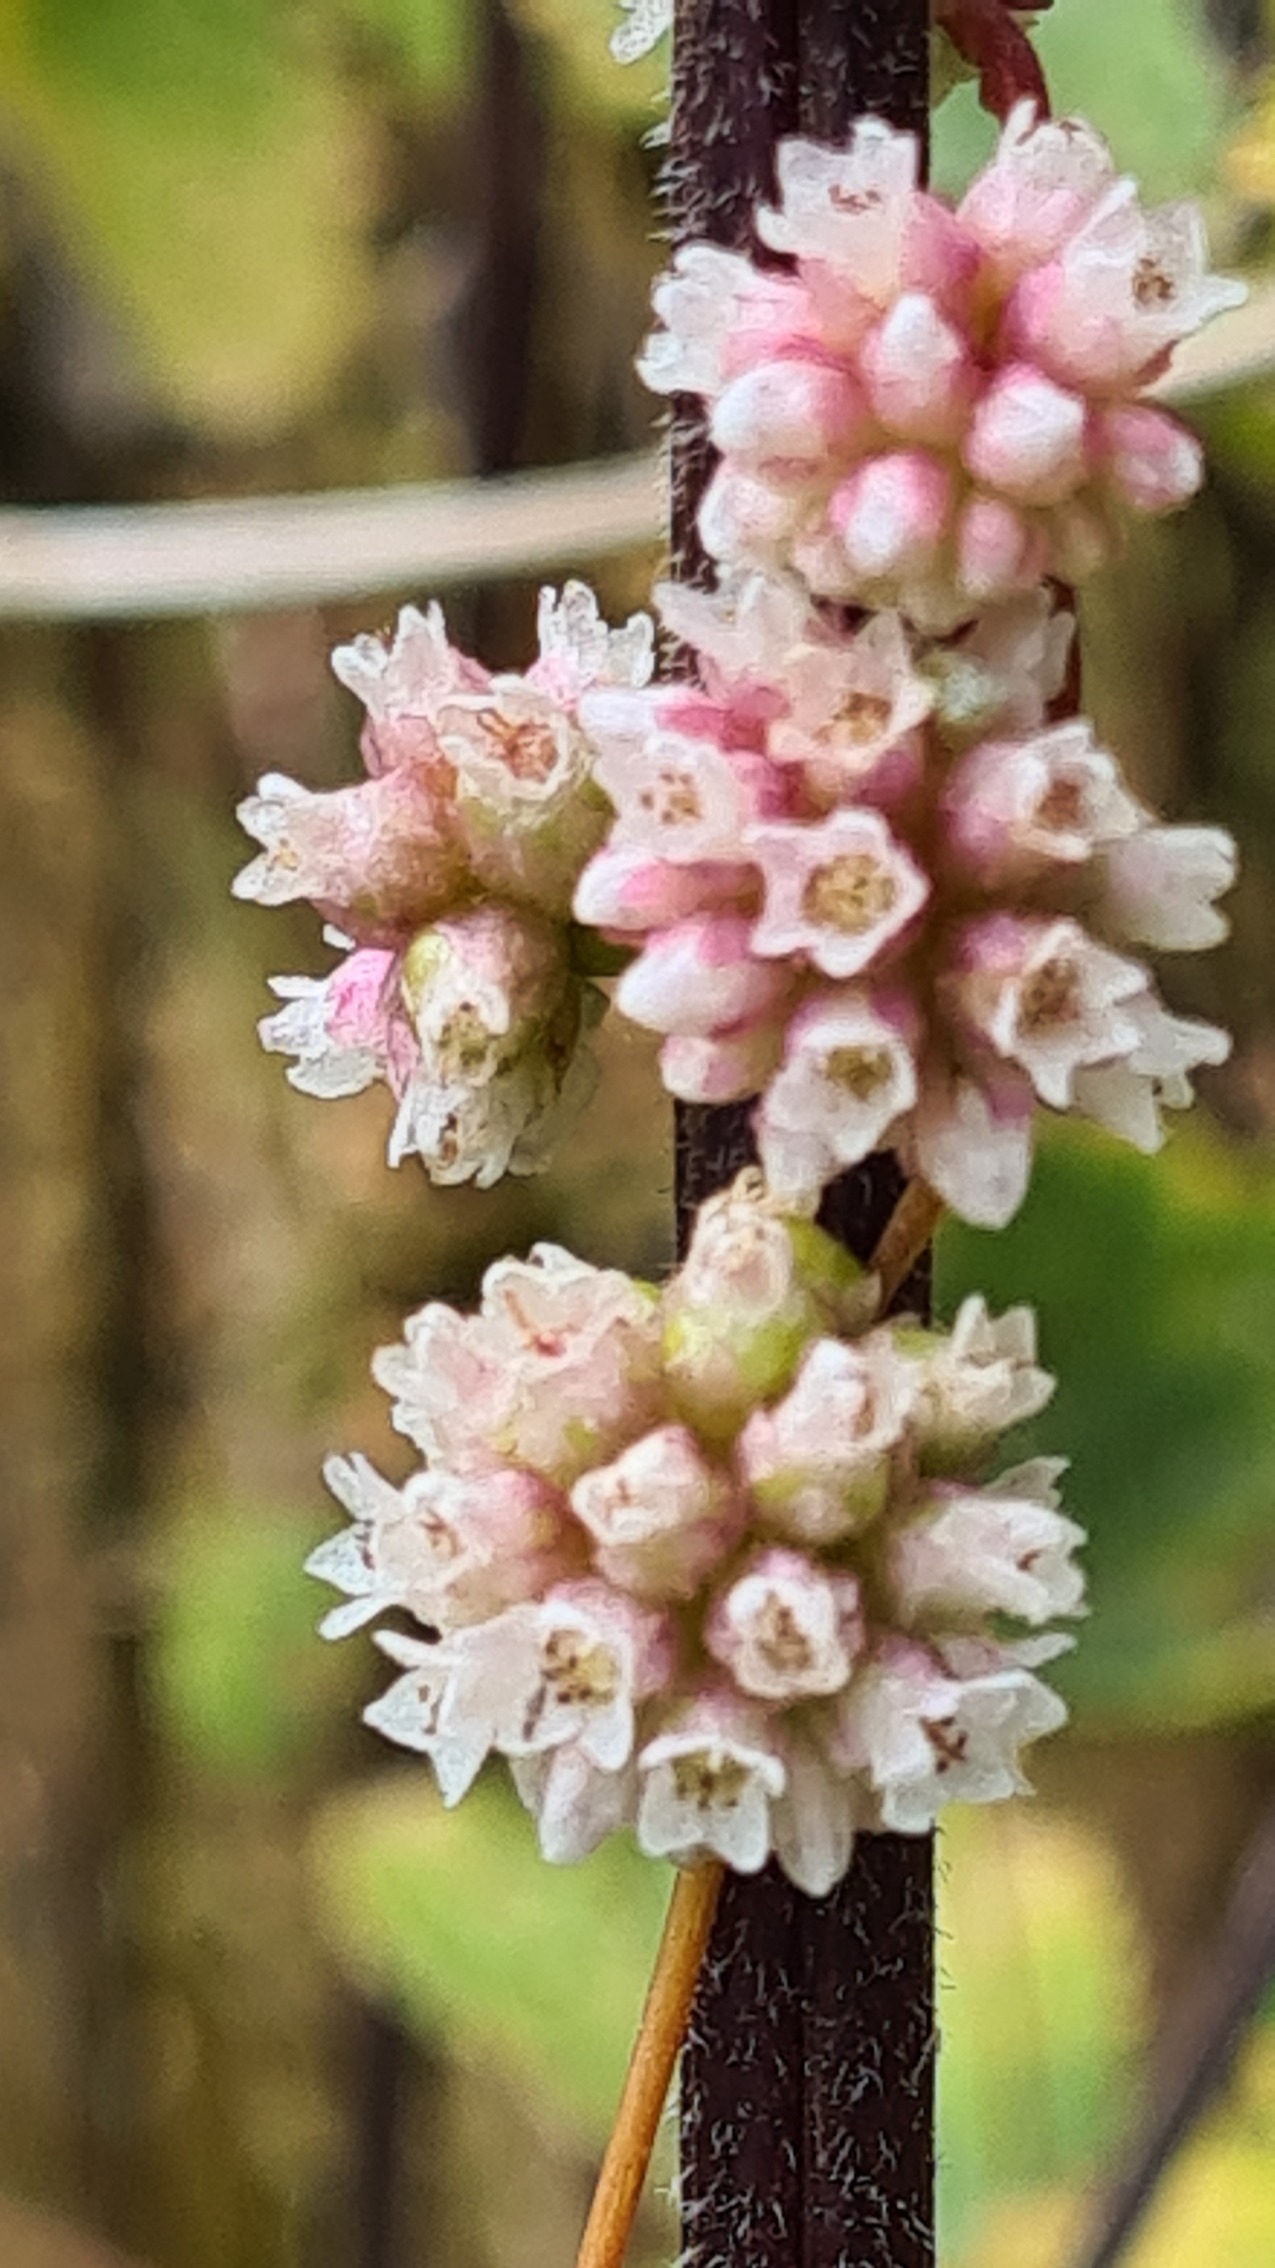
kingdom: Plantae
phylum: Tracheophyta
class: Magnoliopsida
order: Solanales
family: Convolvulaceae
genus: Cuscuta
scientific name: Cuscuta europaea
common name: Nælde-silke
